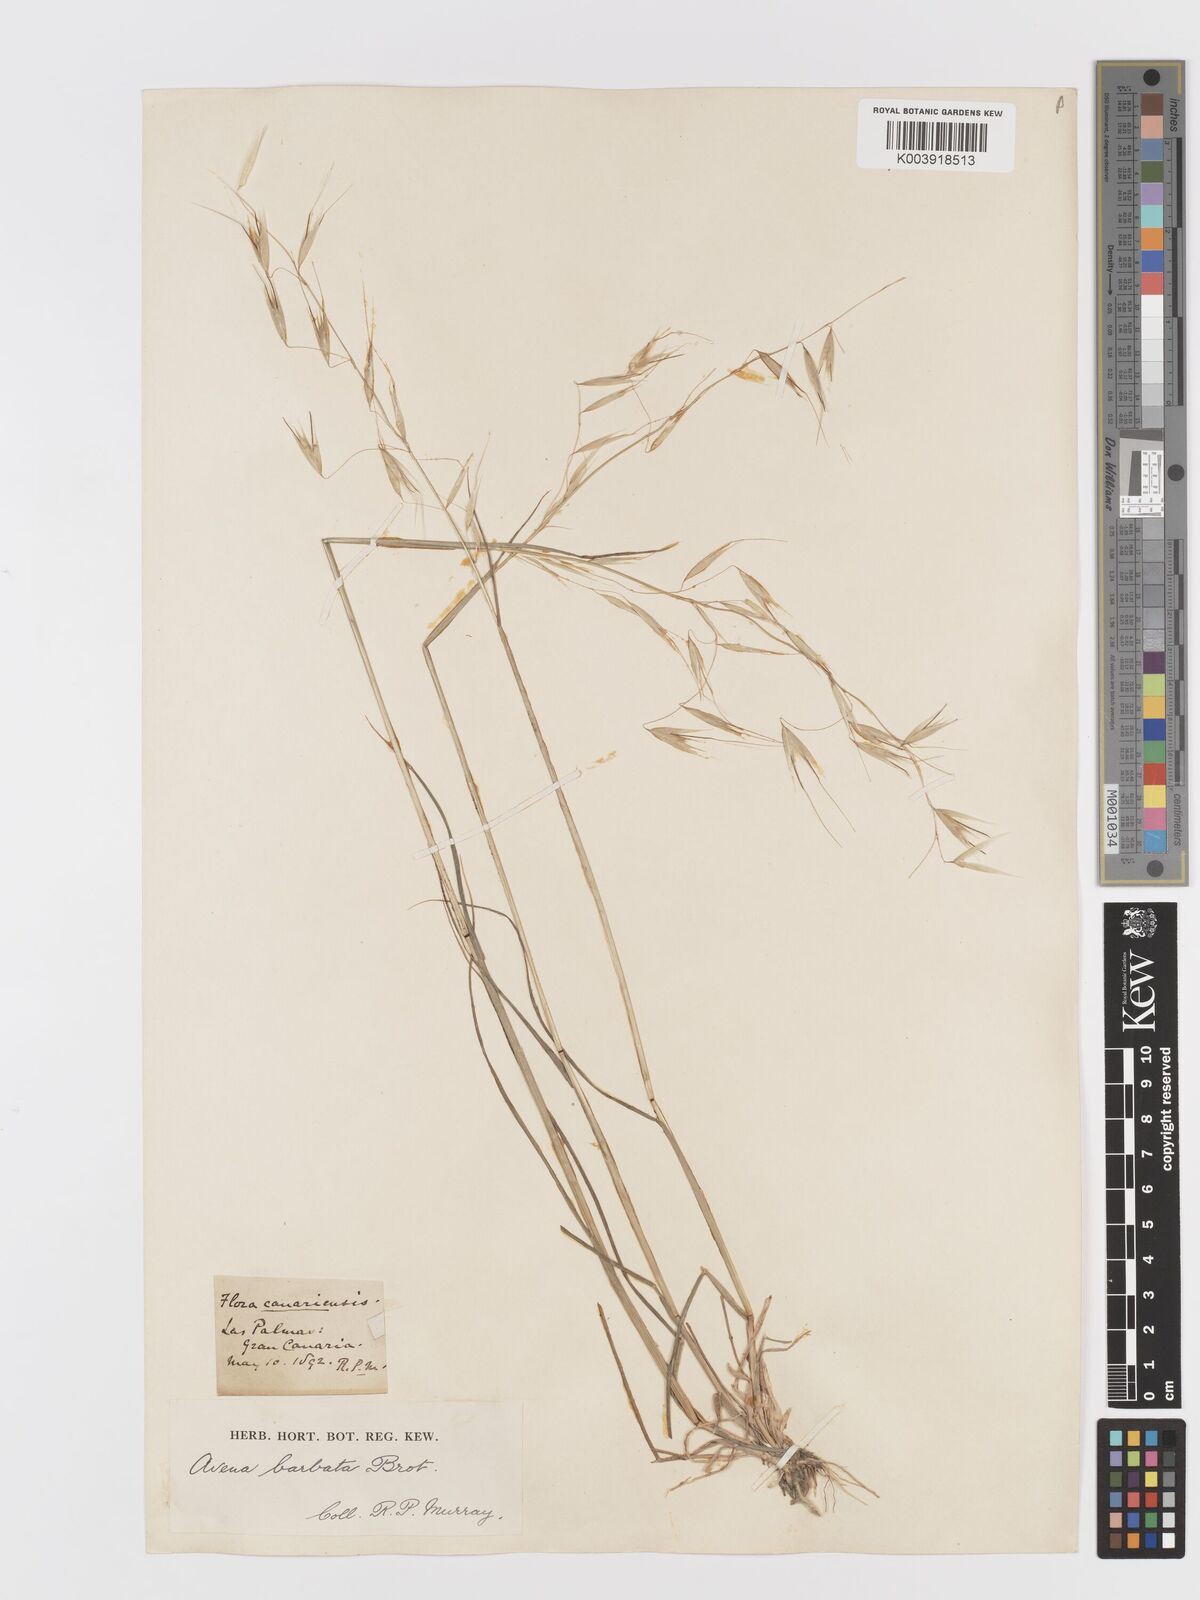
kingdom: Plantae
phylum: Tracheophyta
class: Liliopsida
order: Poales
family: Poaceae
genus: Avena
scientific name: Avena
